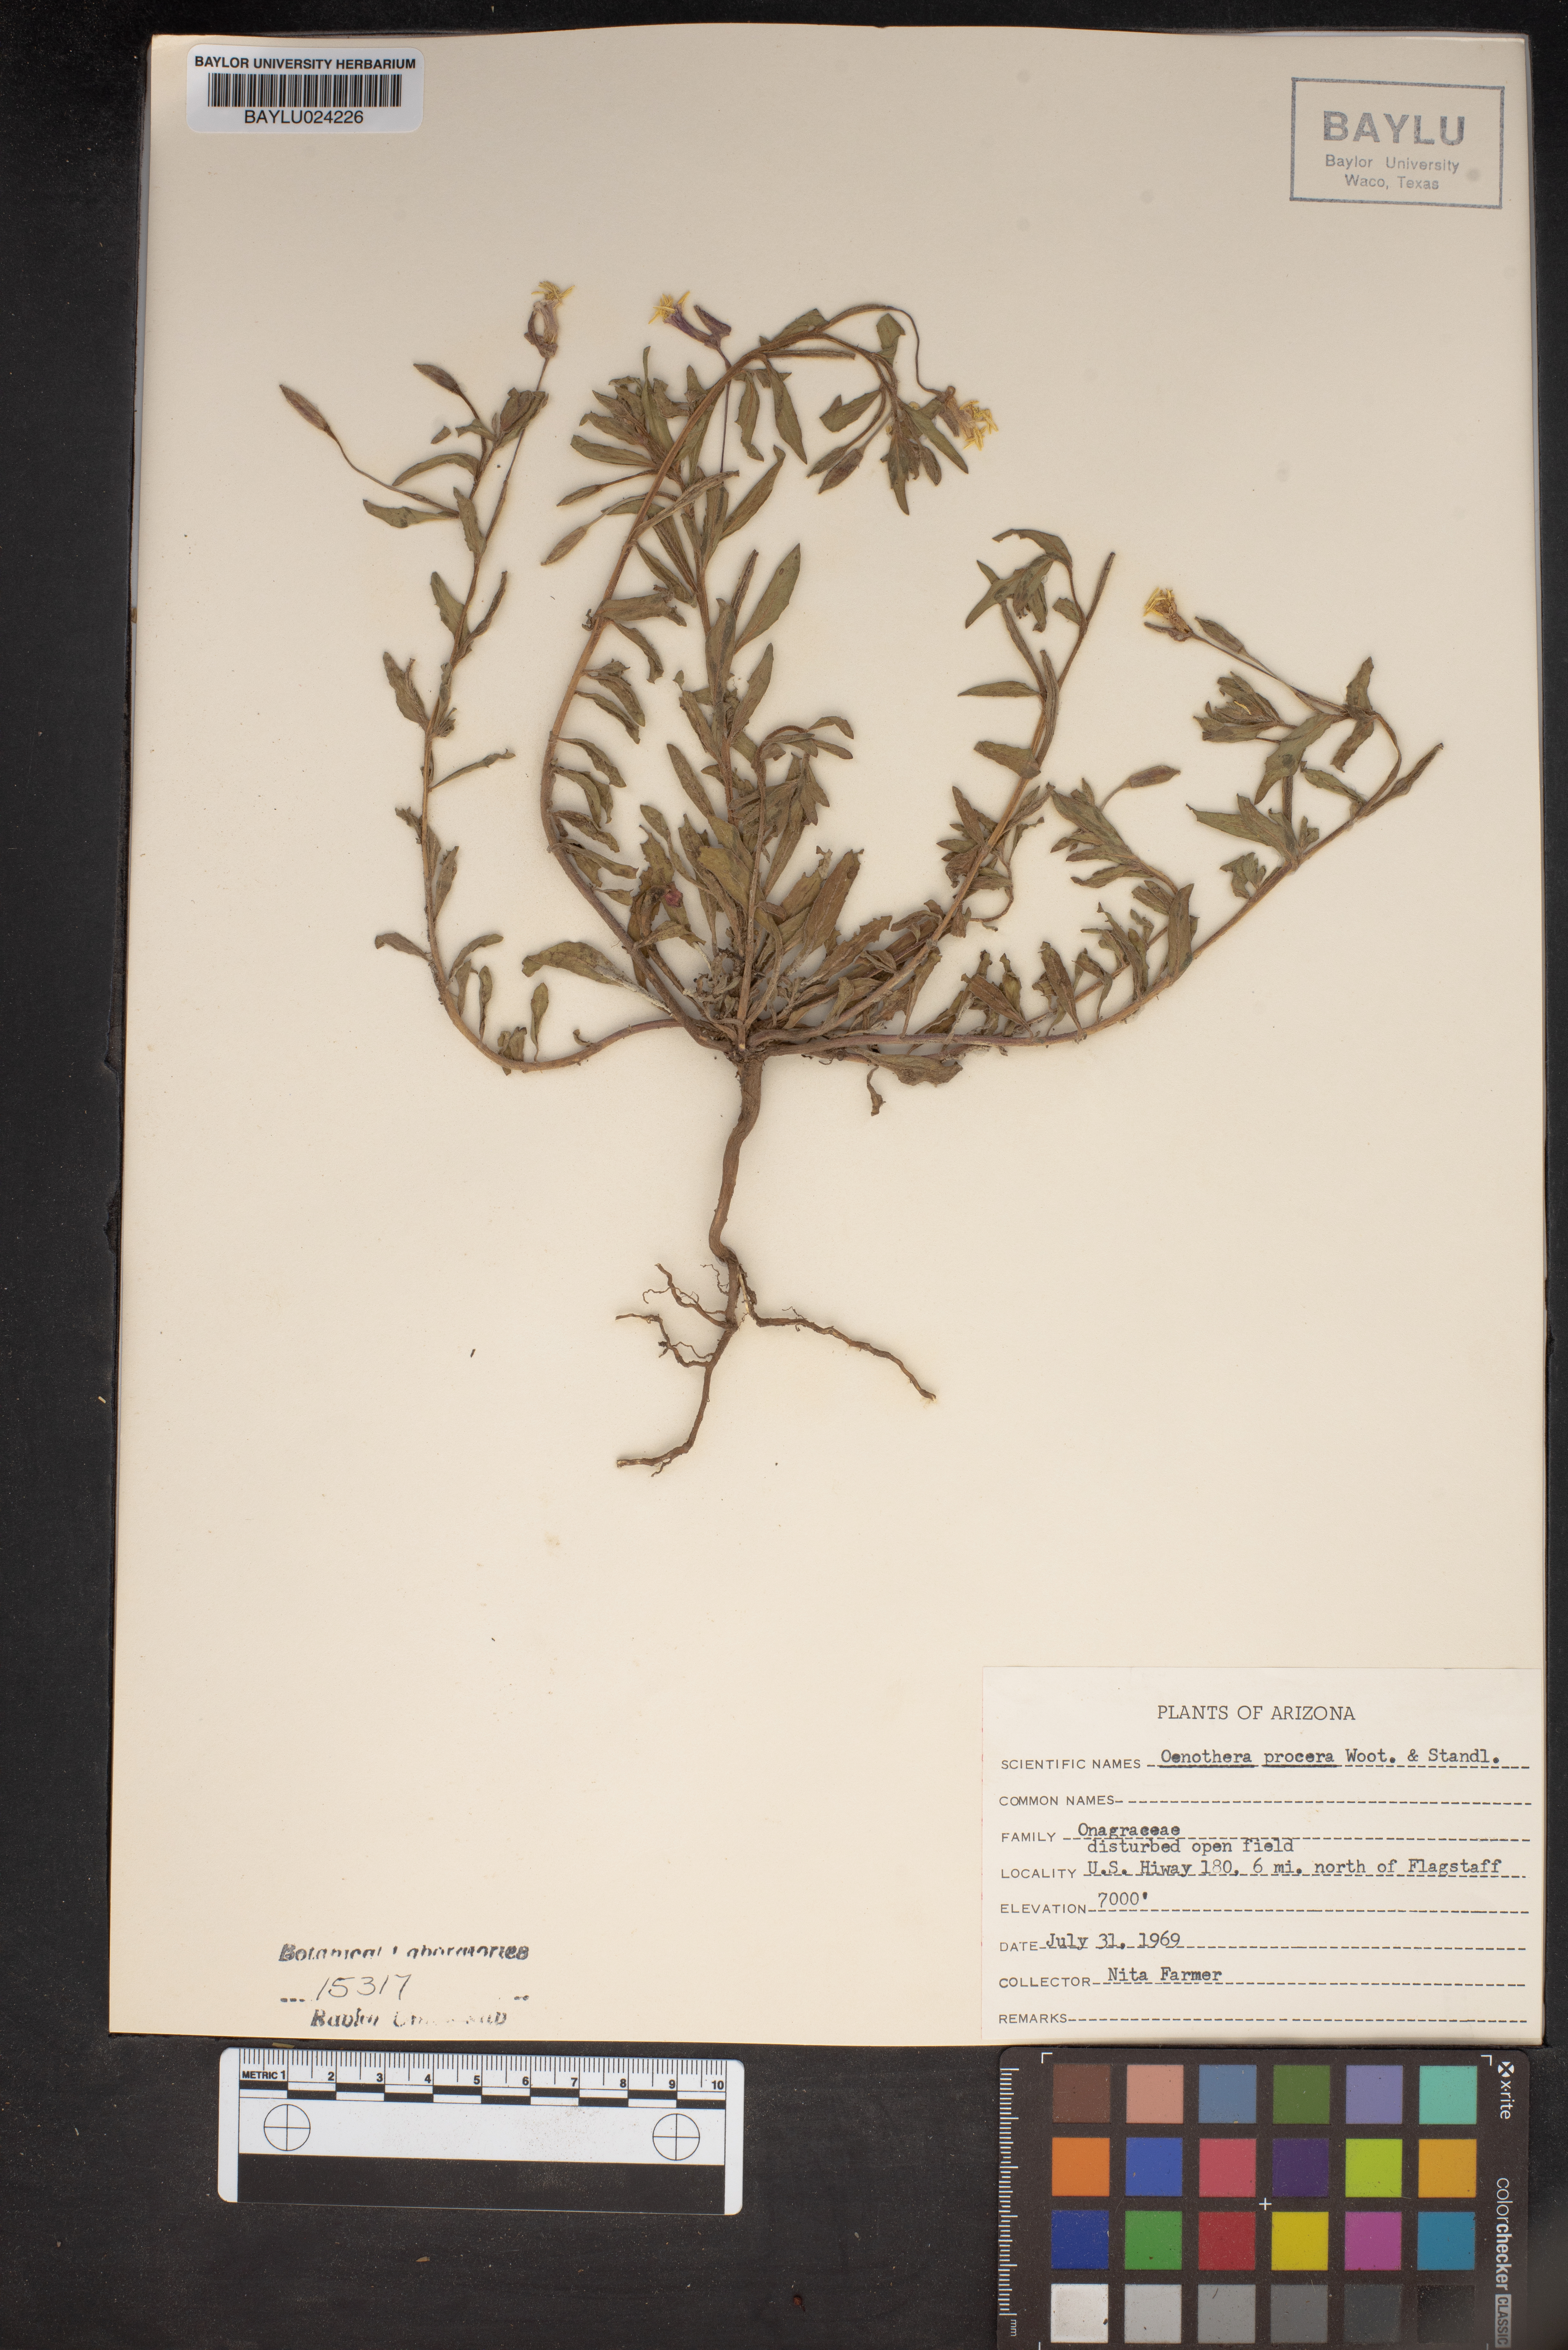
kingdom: Plantae
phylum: Tracheophyta
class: Magnoliopsida
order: Myrtales
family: Onagraceae
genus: Oenothera
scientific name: Oenothera villosa
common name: Hairy evening-primrose
